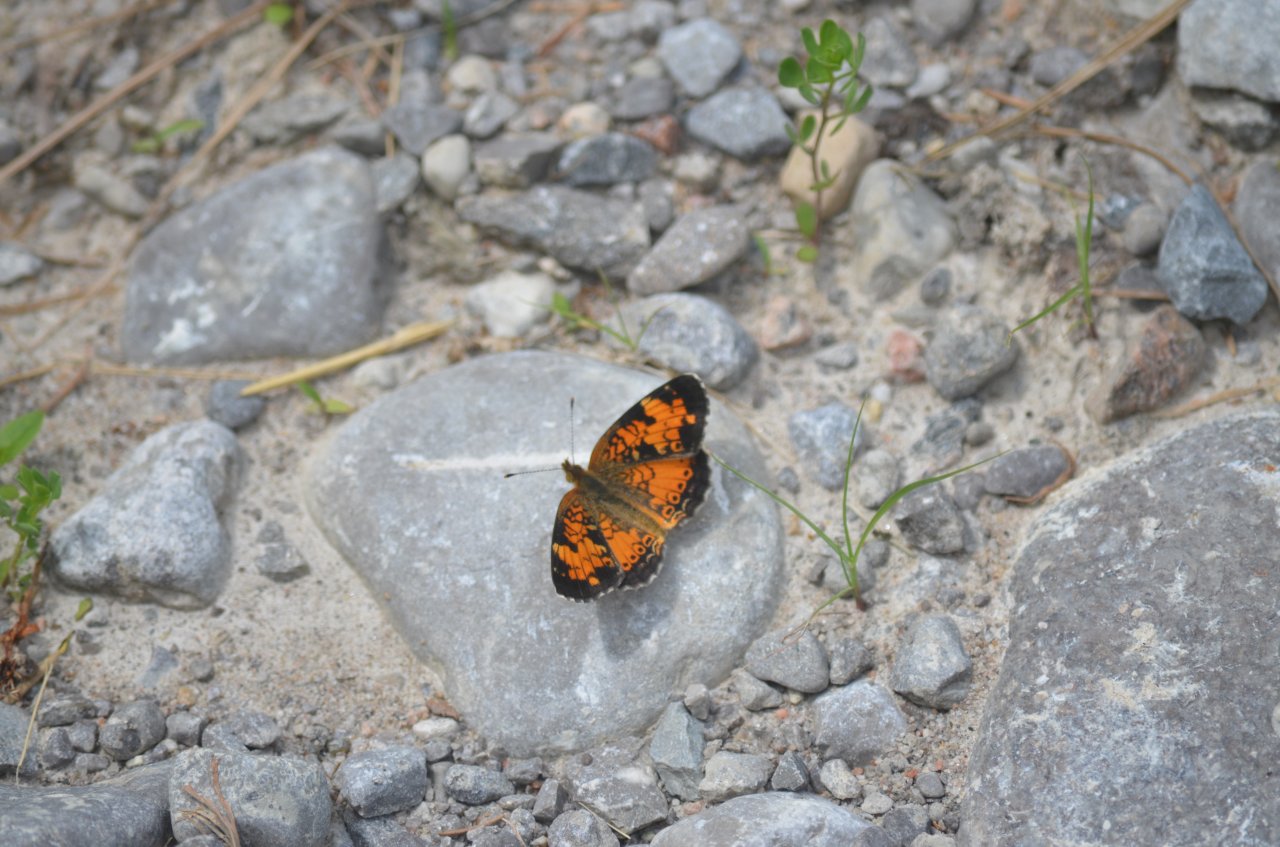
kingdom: Animalia
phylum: Arthropoda
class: Insecta
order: Lepidoptera
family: Nymphalidae
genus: Phyciodes
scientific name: Phyciodes tharos
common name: Northern Crescent
